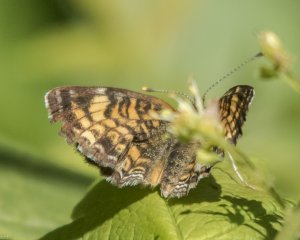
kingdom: Animalia
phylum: Arthropoda
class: Insecta
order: Lepidoptera
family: Nymphalidae
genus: Phyciodes
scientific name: Phyciodes tharos
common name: Northern Crescent
